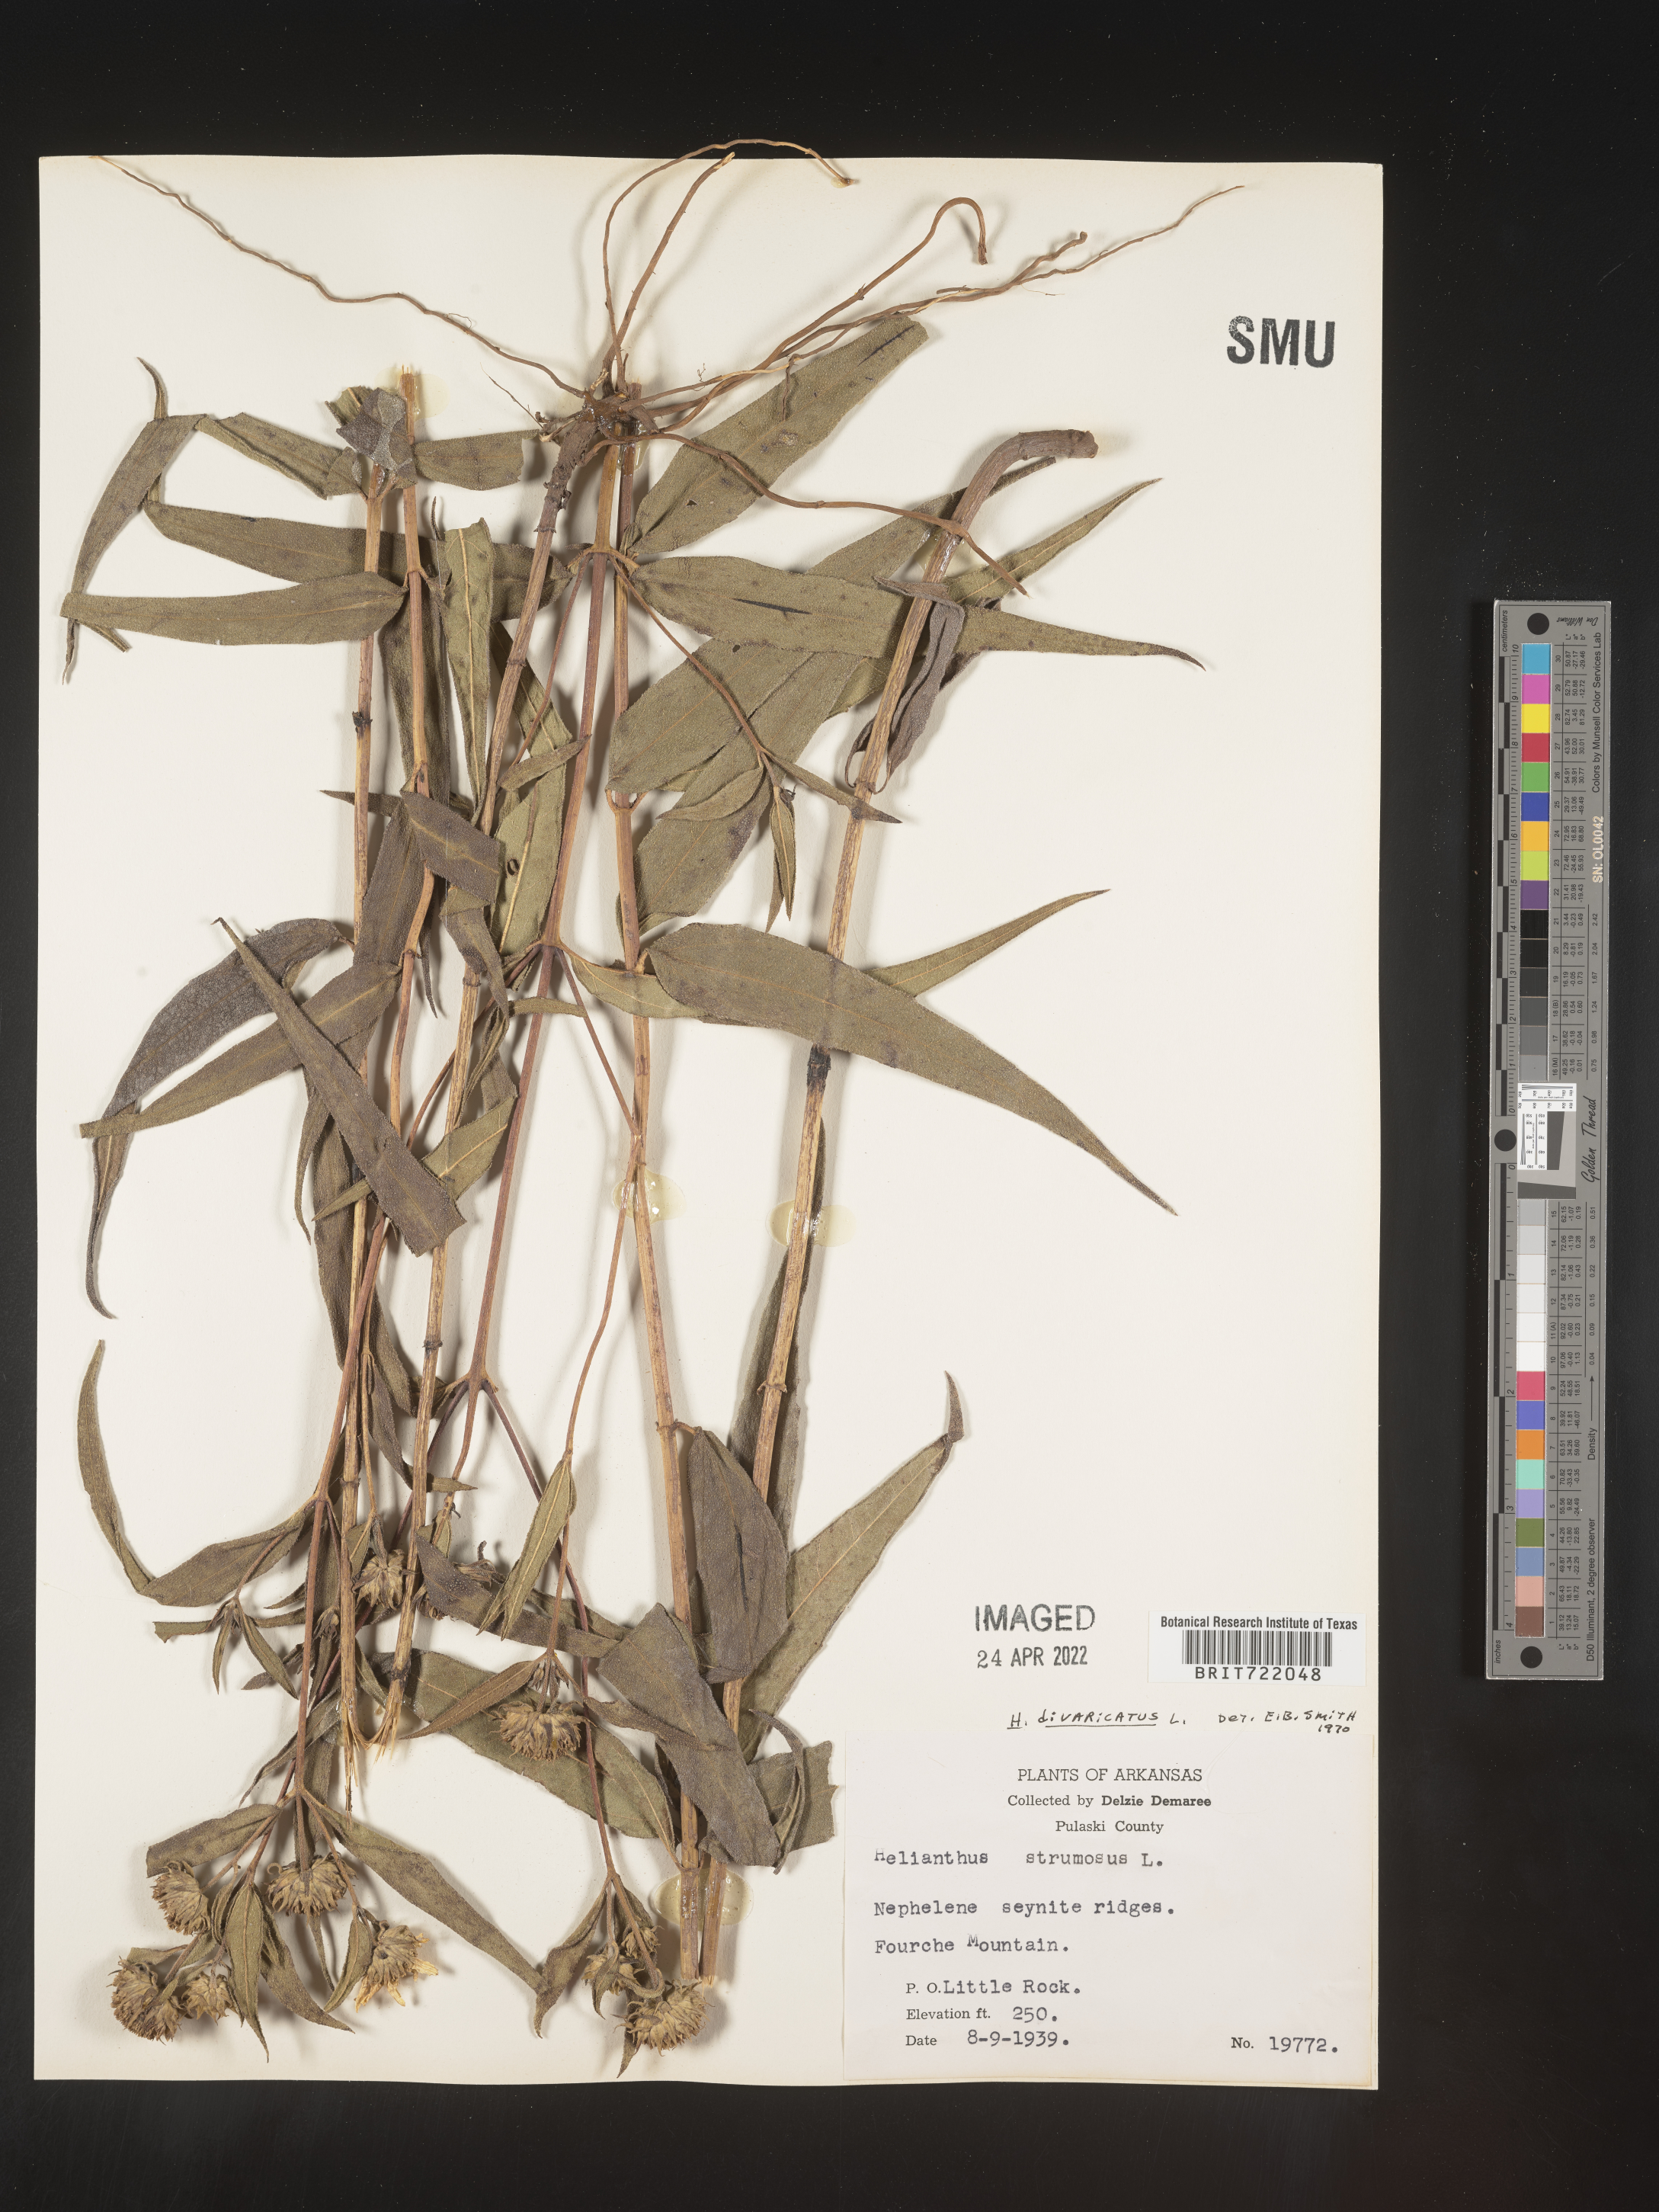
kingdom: Plantae
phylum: Tracheophyta
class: Magnoliopsida
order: Asterales
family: Asteraceae
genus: Helianthus
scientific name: Helianthus divaricatus
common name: Divergent sunflower
